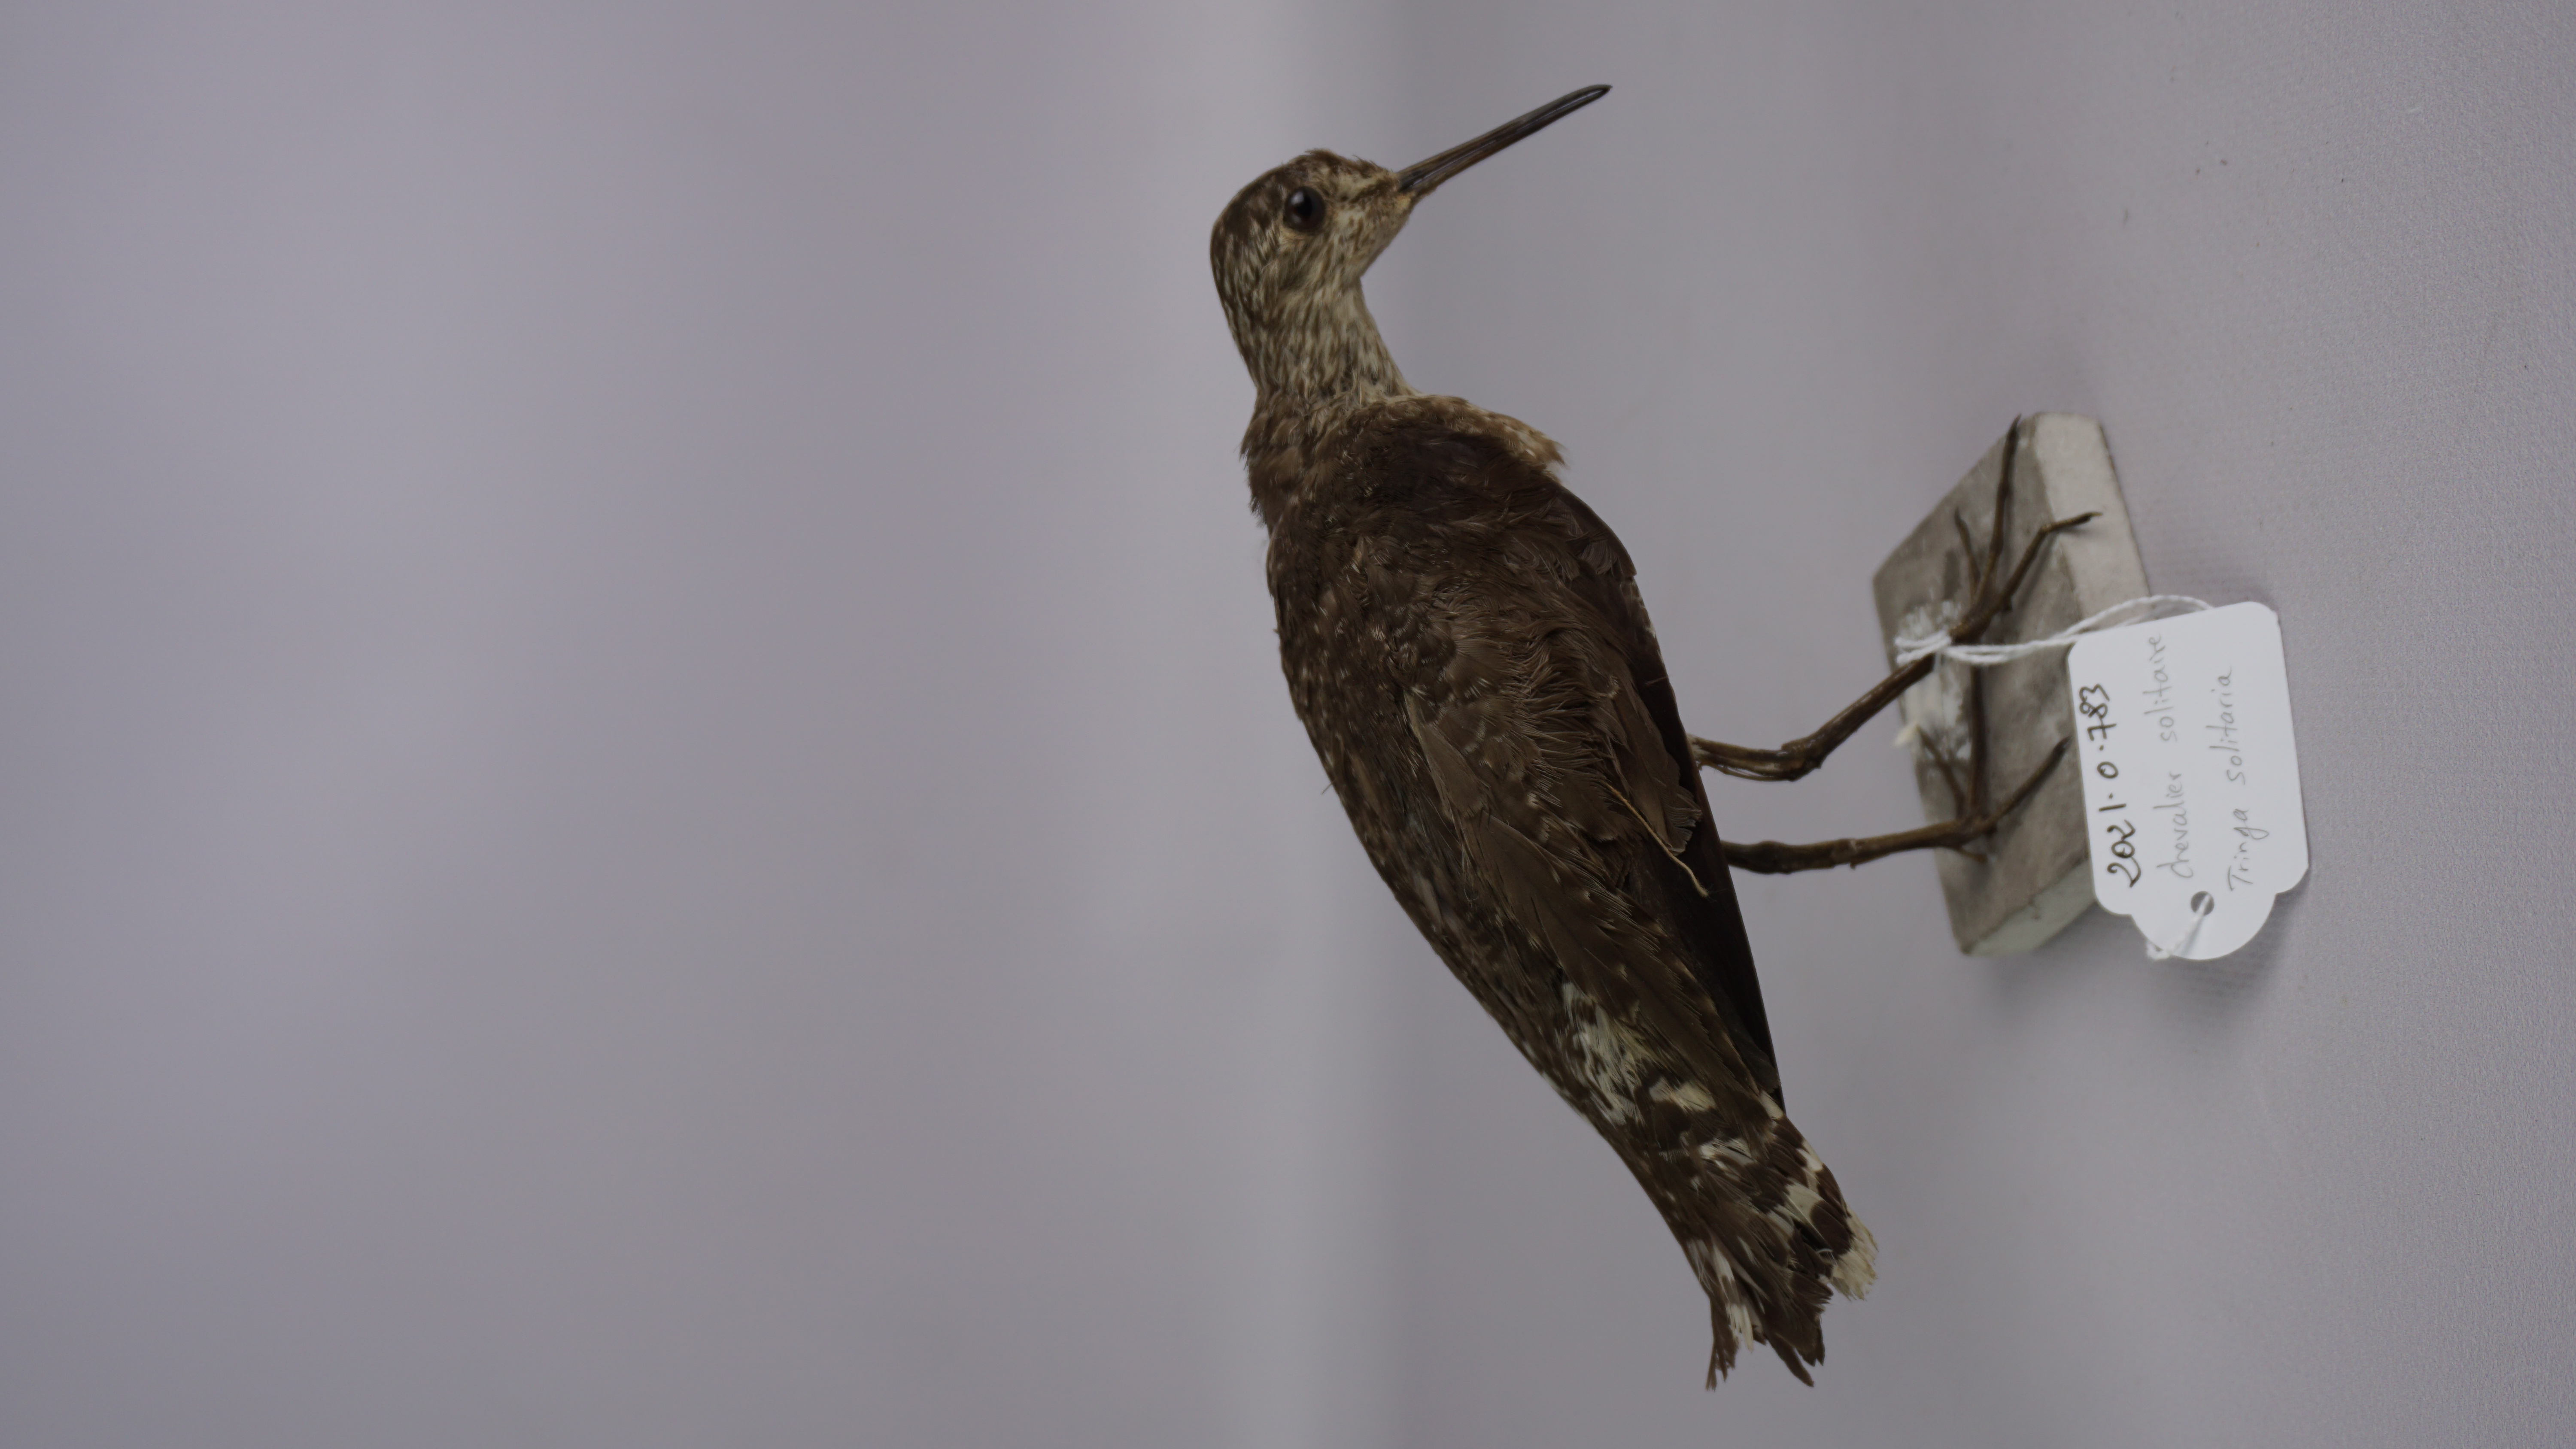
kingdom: Animalia
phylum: Chordata
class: Aves
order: Charadriiformes
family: Scolopacidae
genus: Tringa
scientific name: Tringa solitaria
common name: Solitary sandpiper
